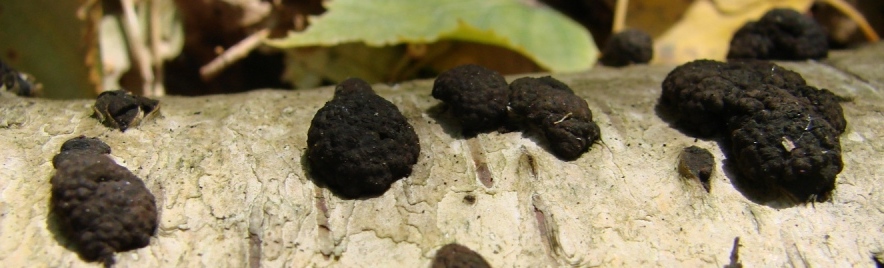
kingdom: Fungi
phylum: Ascomycota
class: Sordariomycetes
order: Xylariales
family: Hypoxylaceae
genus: Hypoxylon
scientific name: Hypoxylon fragiforme
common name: kuljordbær
